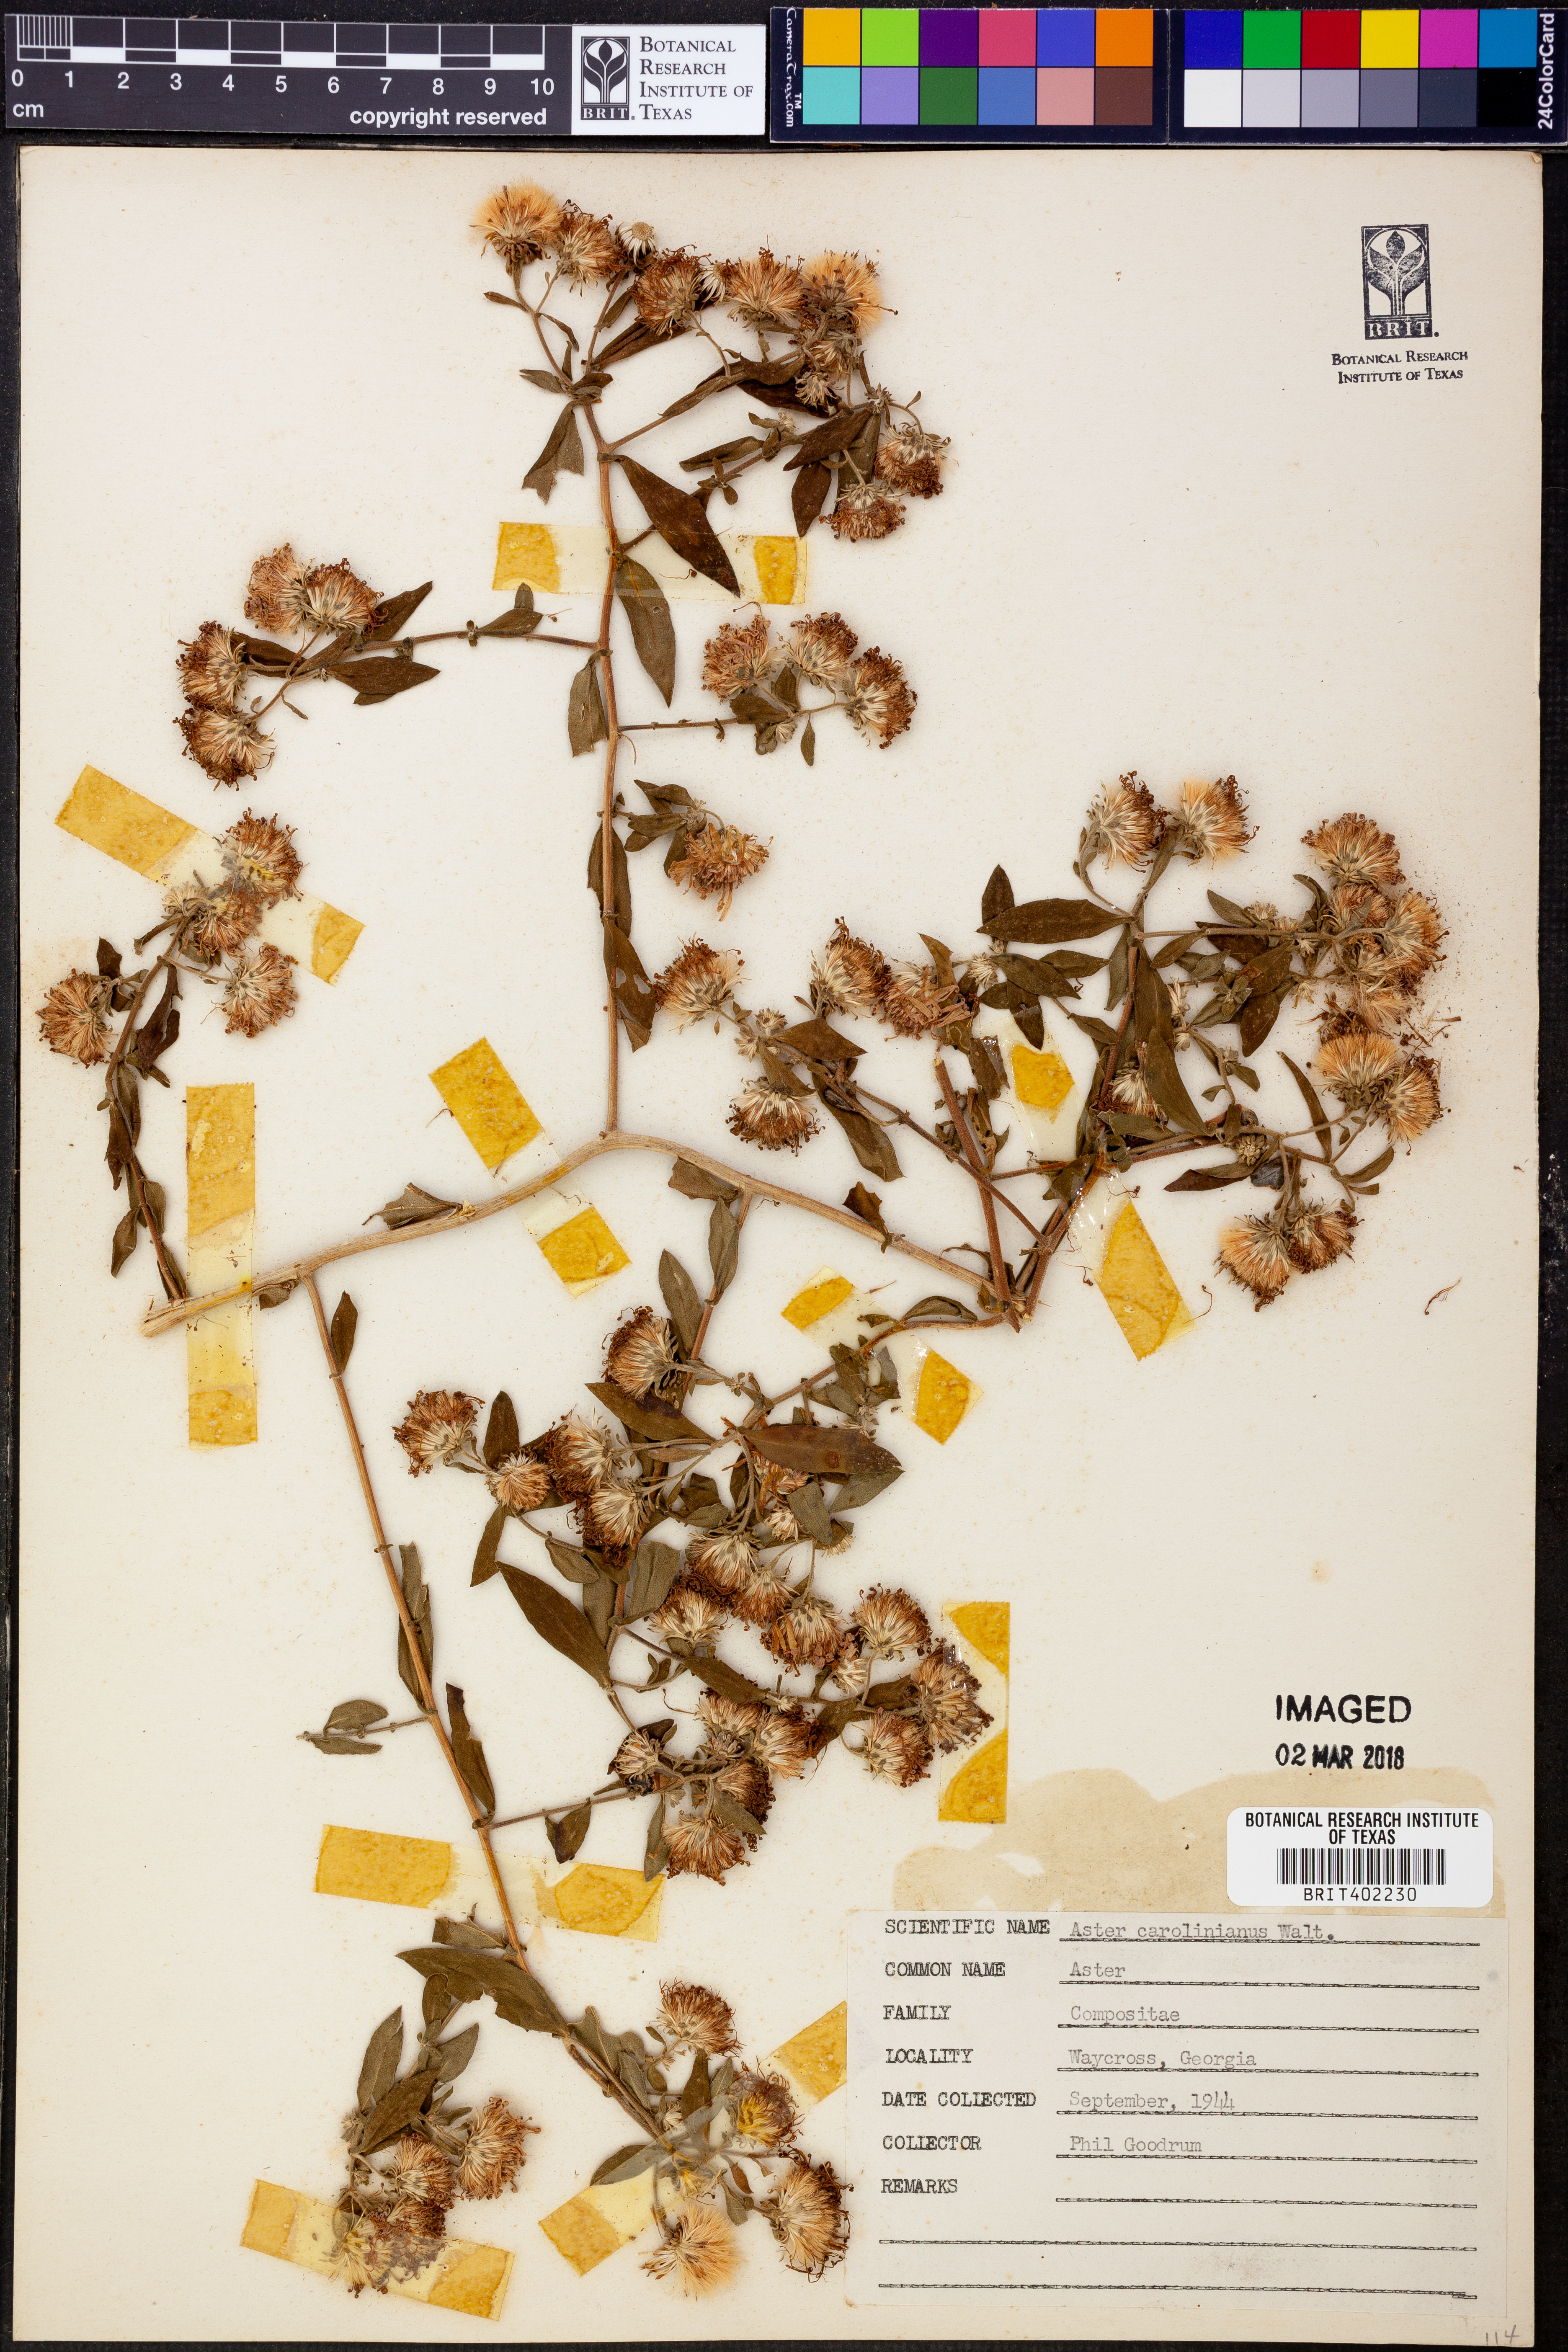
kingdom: Plantae
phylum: Tracheophyta
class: Magnoliopsida
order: Asterales
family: Asteraceae
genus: Ampelaster
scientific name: Ampelaster carolinianus
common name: Climbing aster
